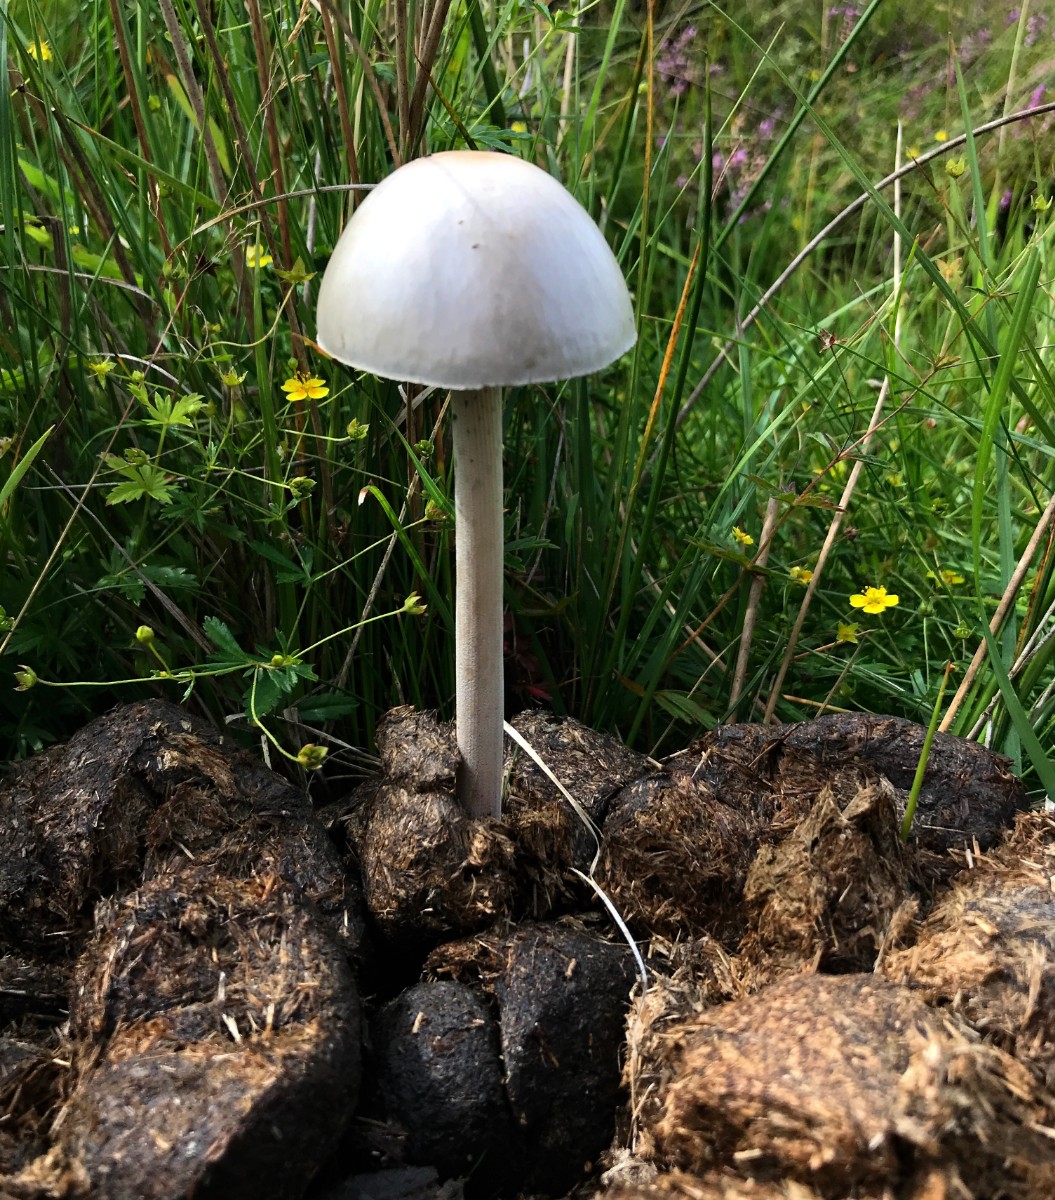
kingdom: Fungi
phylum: Basidiomycota
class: Agaricomycetes
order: Agaricales
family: Bolbitiaceae
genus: Panaeolus
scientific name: Panaeolus
